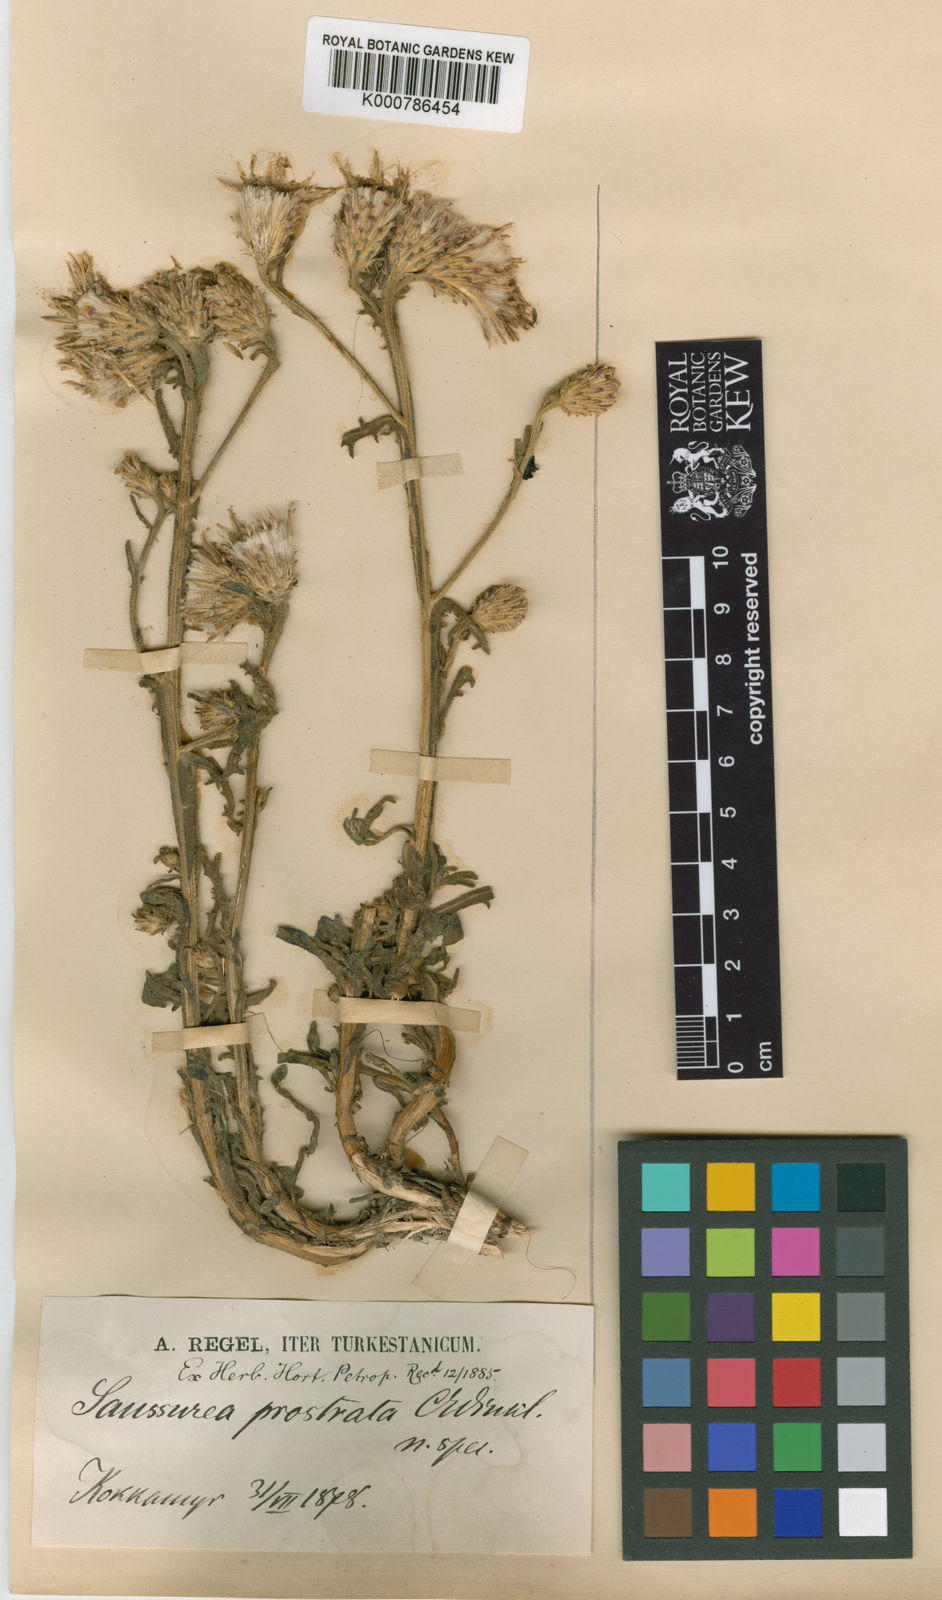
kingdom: Plantae
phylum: Tracheophyta
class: Magnoliopsida
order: Asterales
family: Asteraceae
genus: Saussurea
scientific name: Saussurea prostrata
